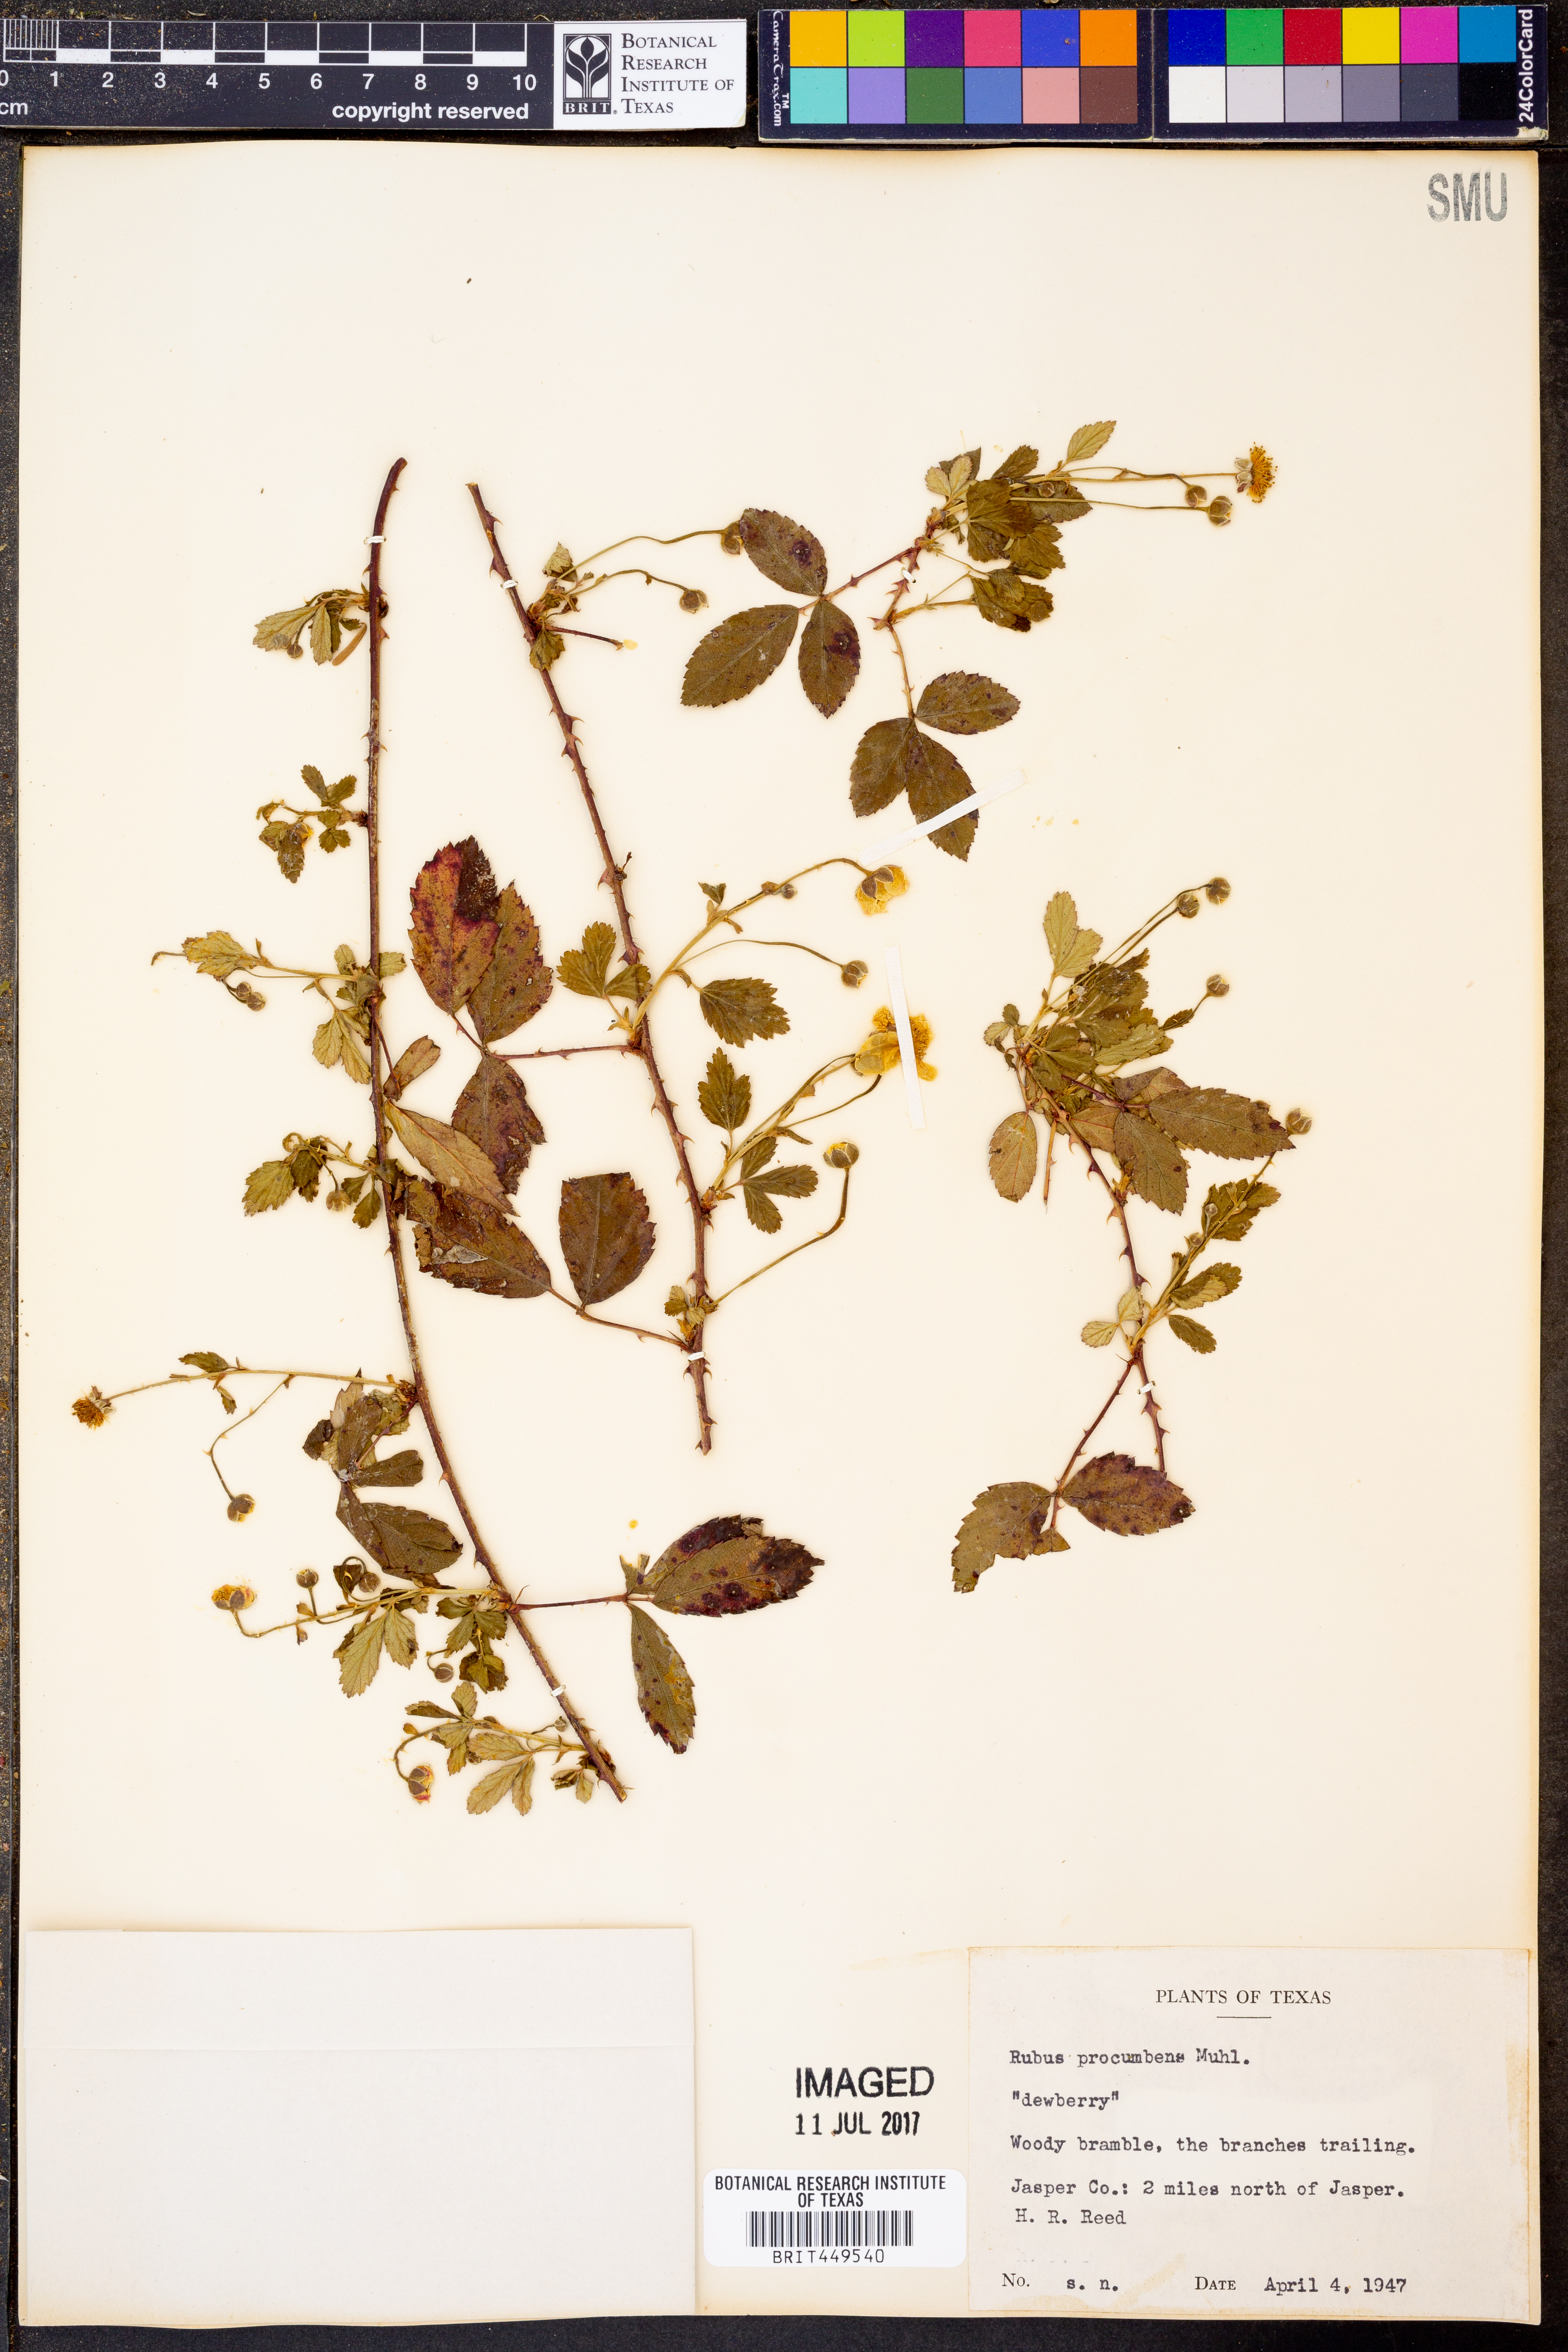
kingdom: Plantae
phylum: Tracheophyta
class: Magnoliopsida
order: Rosales
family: Rosaceae
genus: Rubus
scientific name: Rubus flagellaris
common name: American dewberry
